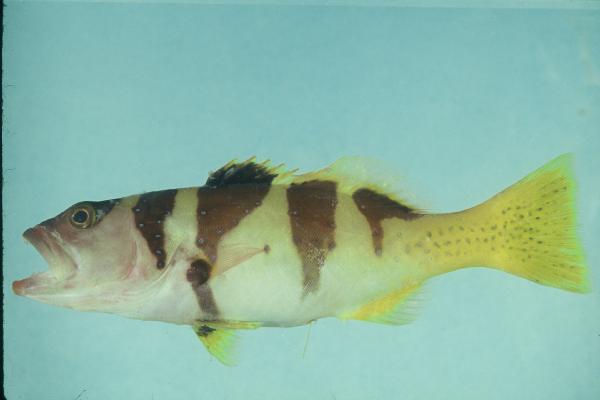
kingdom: Animalia
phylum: Chordata
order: Perciformes
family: Serranidae
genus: Plectropomus
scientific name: Plectropomus laevis
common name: Chinese footballer
